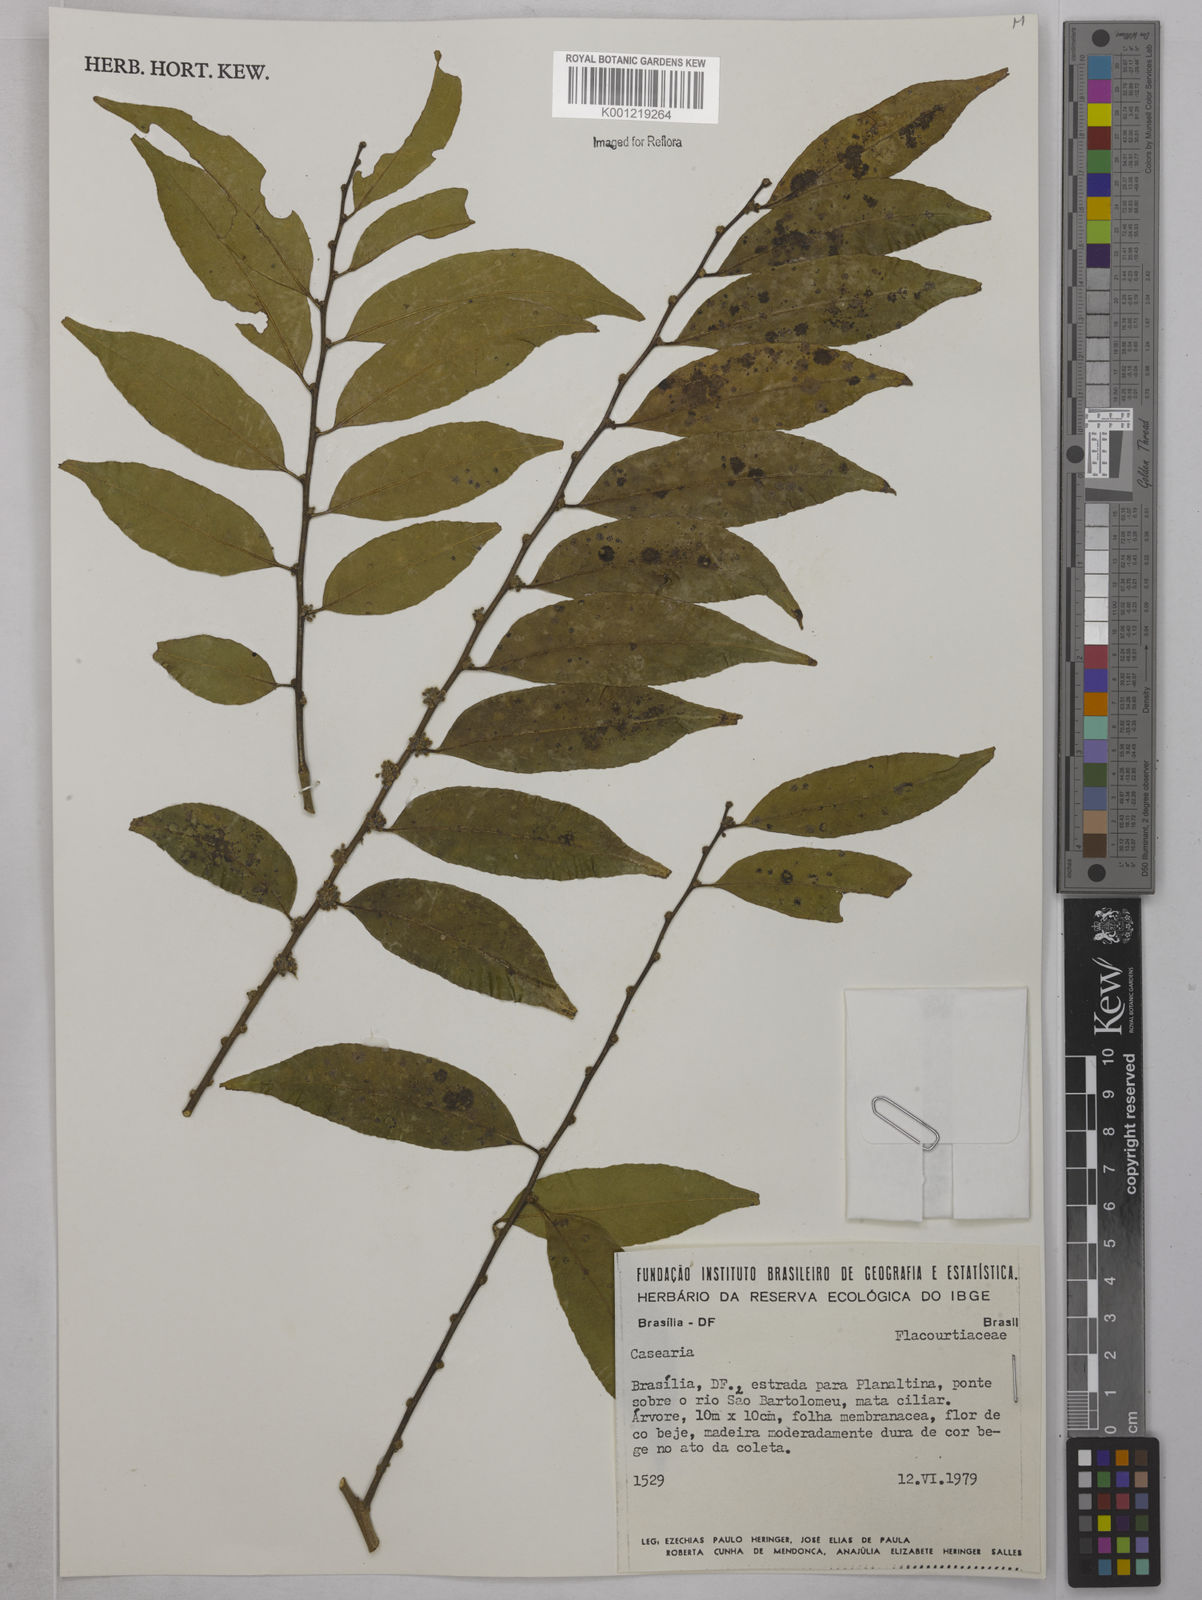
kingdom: Plantae
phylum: Tracheophyta
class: Magnoliopsida
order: Malpighiales
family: Salicaceae
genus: Casearia
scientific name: Casearia
